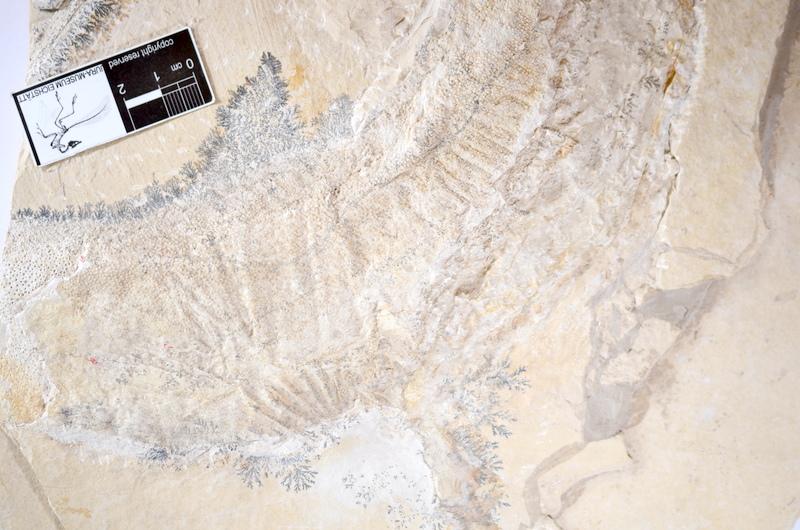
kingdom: Animalia
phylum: Chordata
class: Elasmobranchii
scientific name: Elasmobranchii
